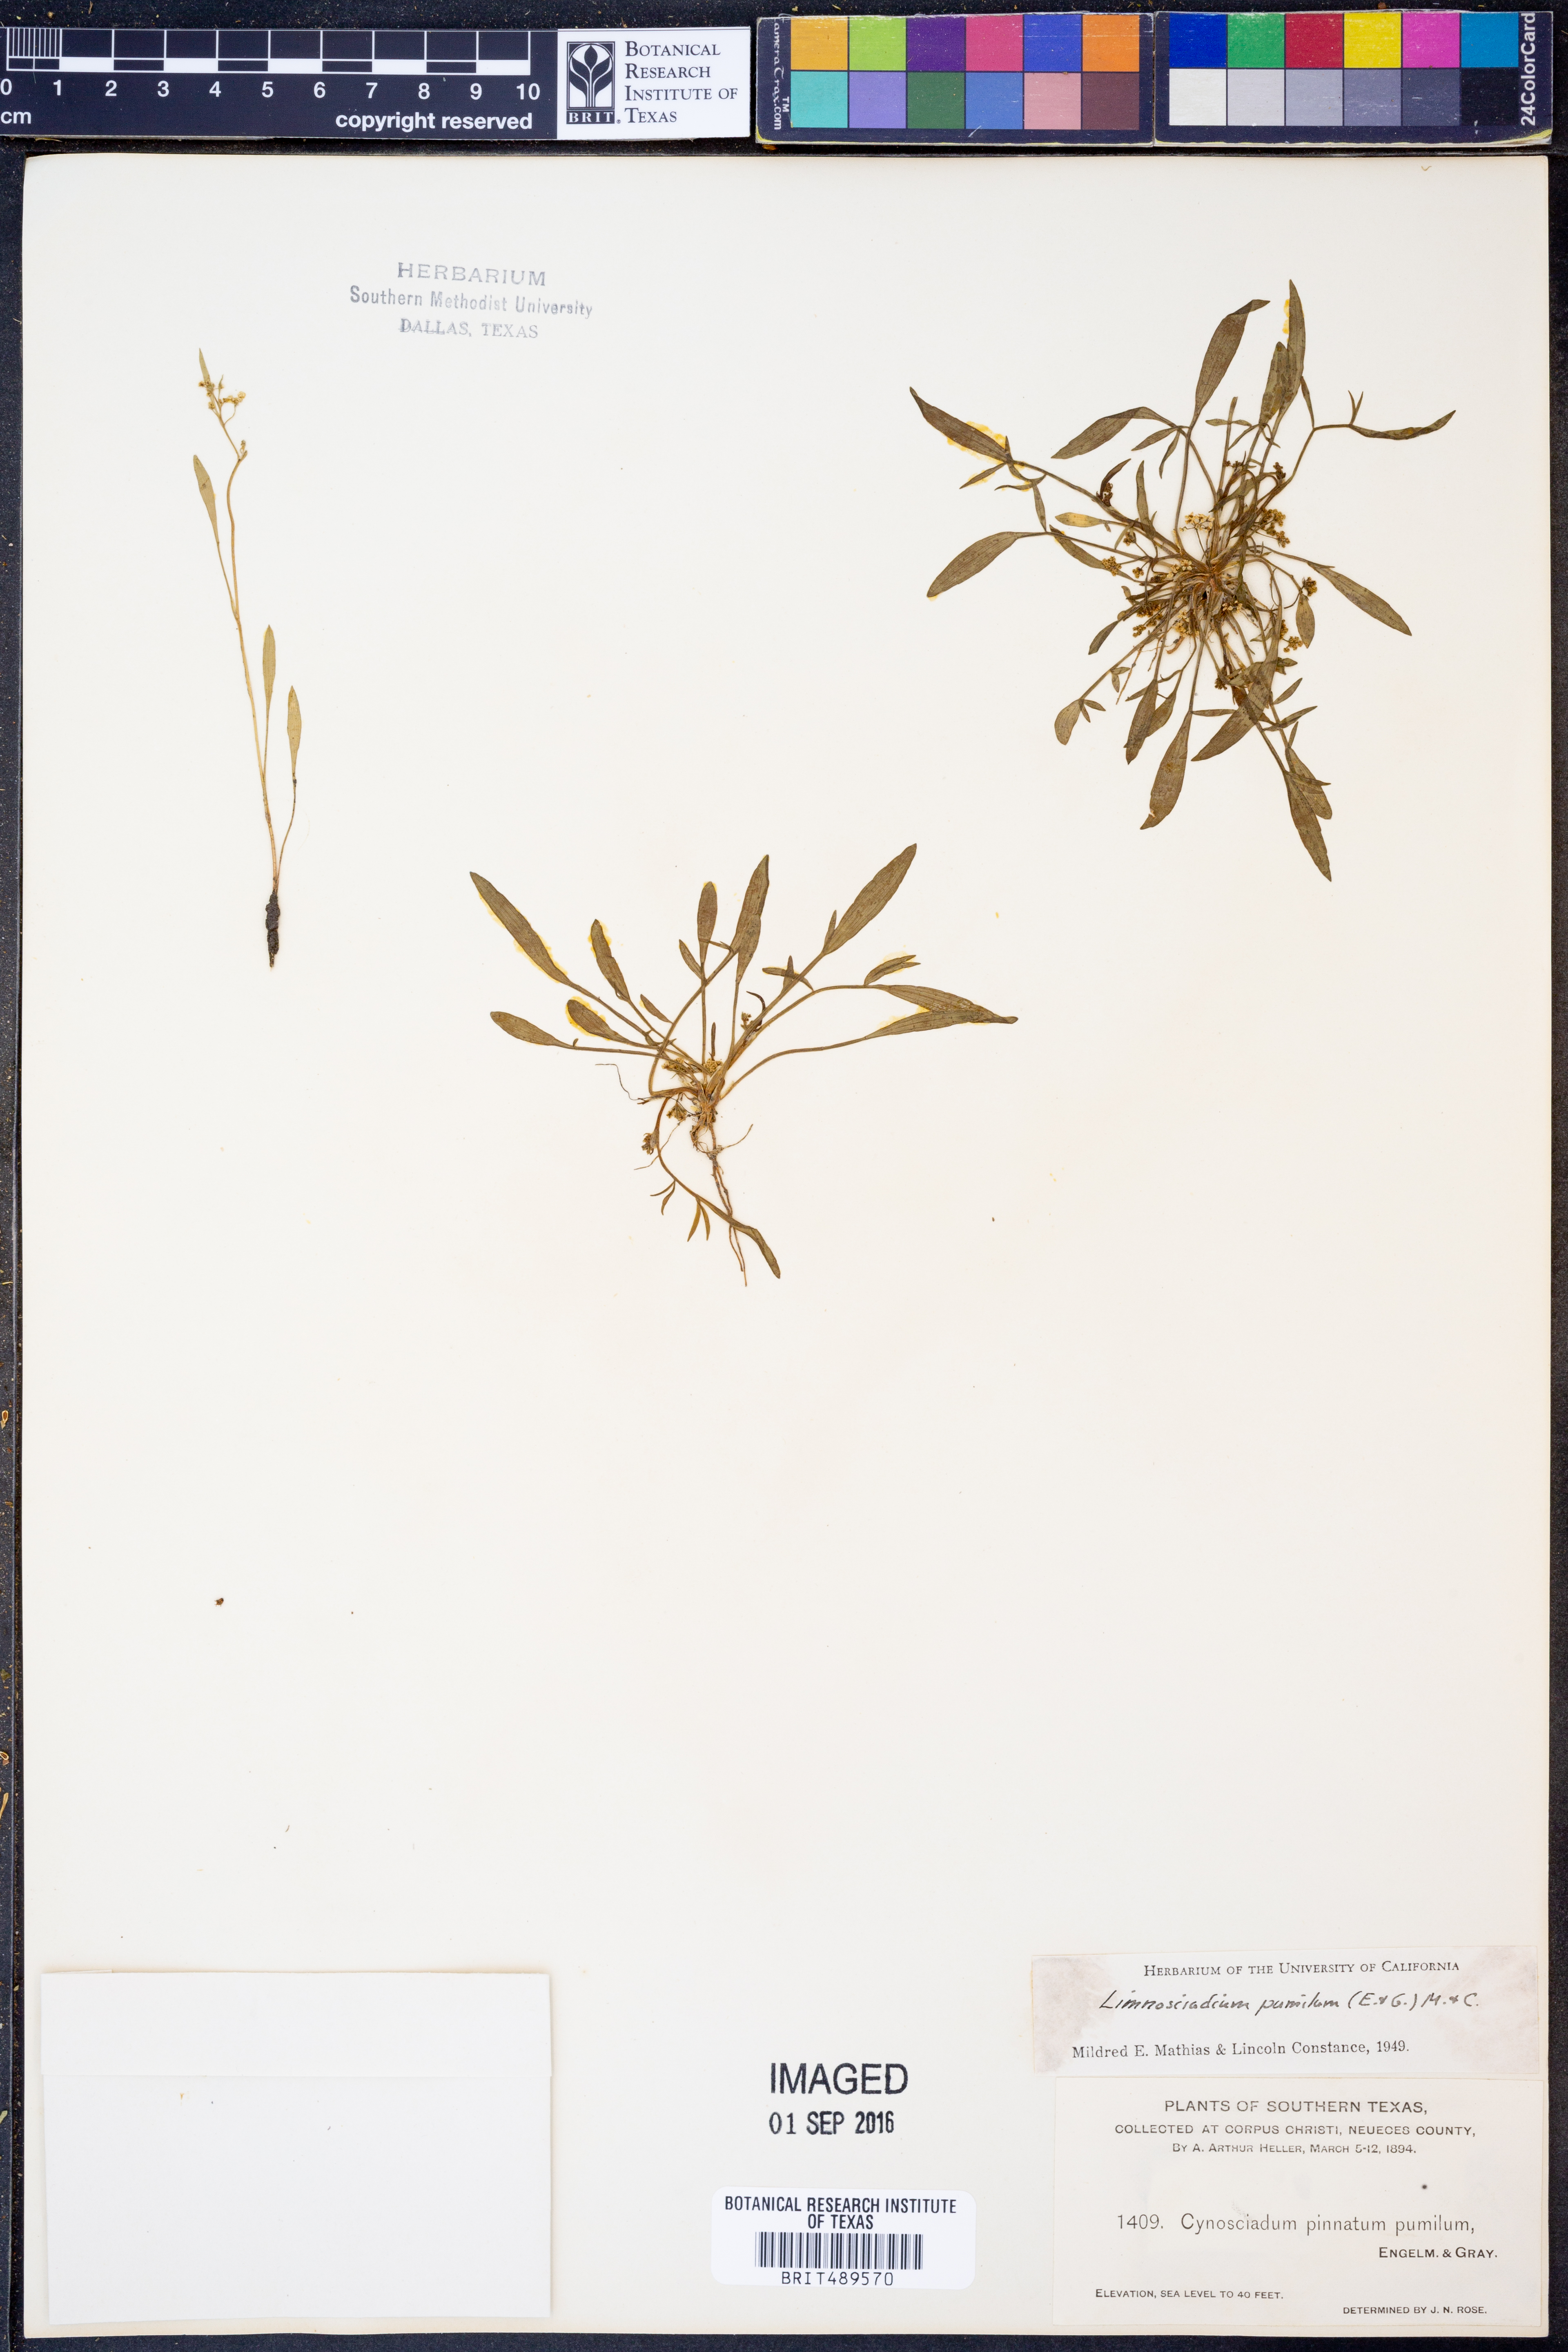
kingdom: Plantae
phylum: Tracheophyta
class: Magnoliopsida
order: Apiales
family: Apiaceae
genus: Limnosciadium
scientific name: Limnosciadium pinnatum
